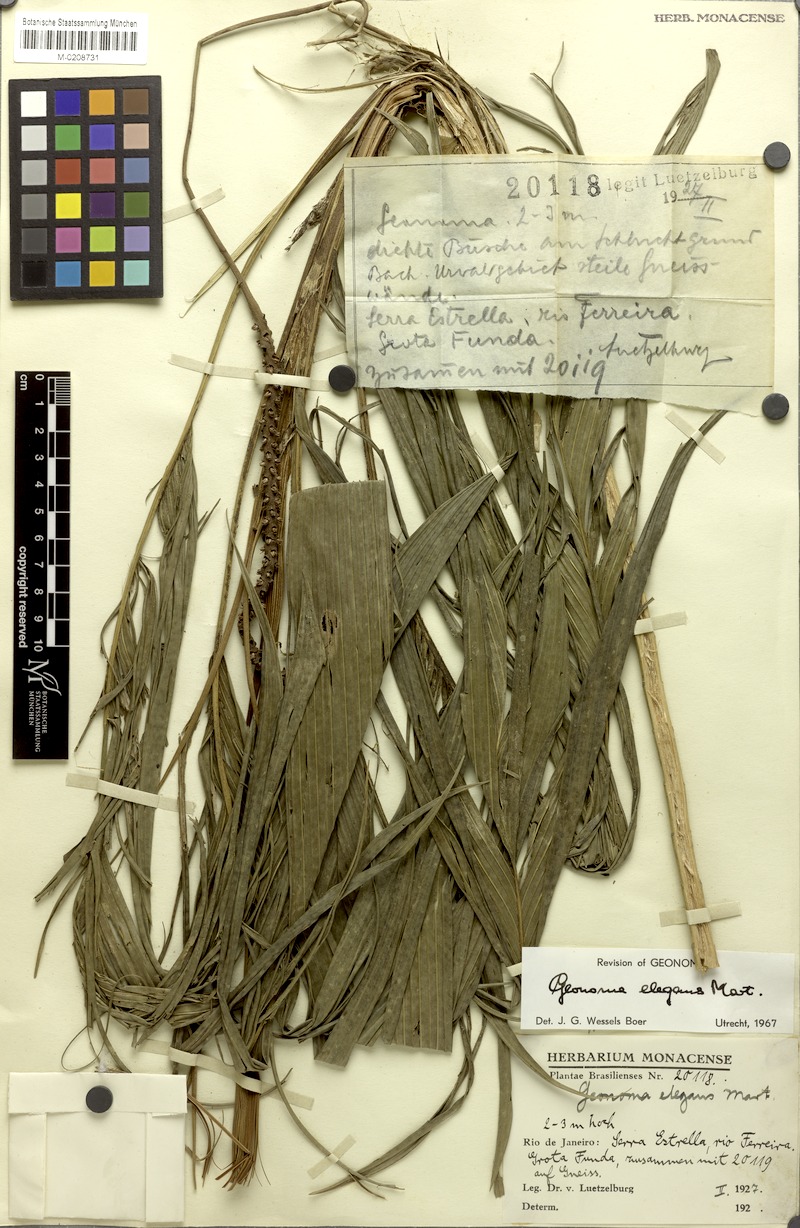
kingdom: Plantae
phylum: Tracheophyta
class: Liliopsida
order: Arecales
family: Arecaceae
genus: Geonoma
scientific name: Geonoma elegans
